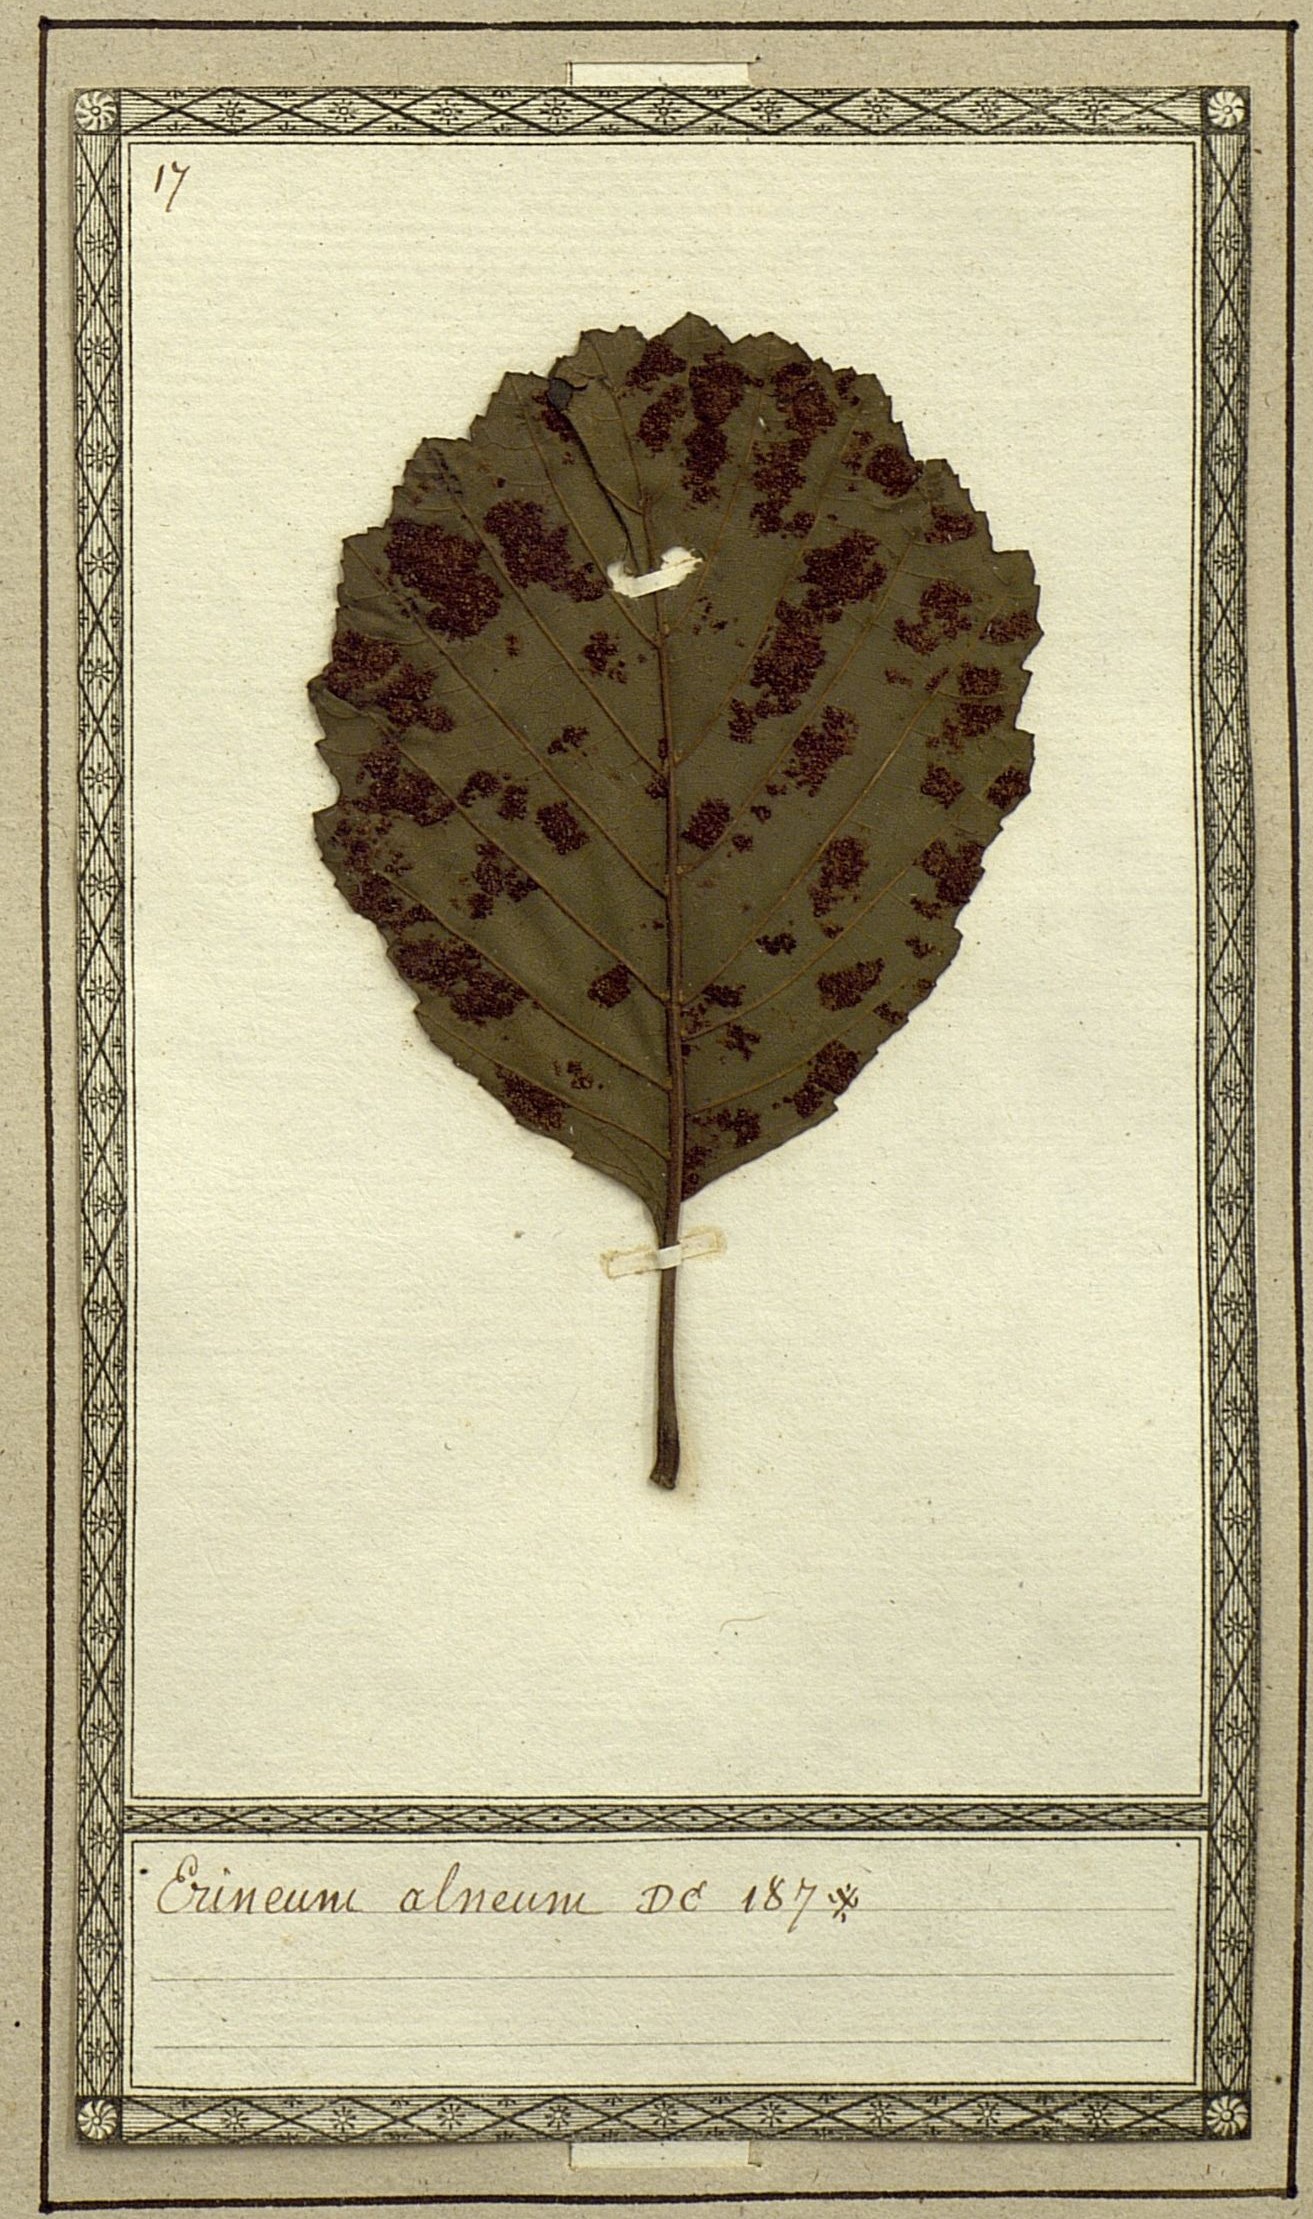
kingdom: Fungi
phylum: Basidiomycota
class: Pucciniomycetes
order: Pucciniales
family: Cronartiaceae
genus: Erineum
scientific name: Erineum
